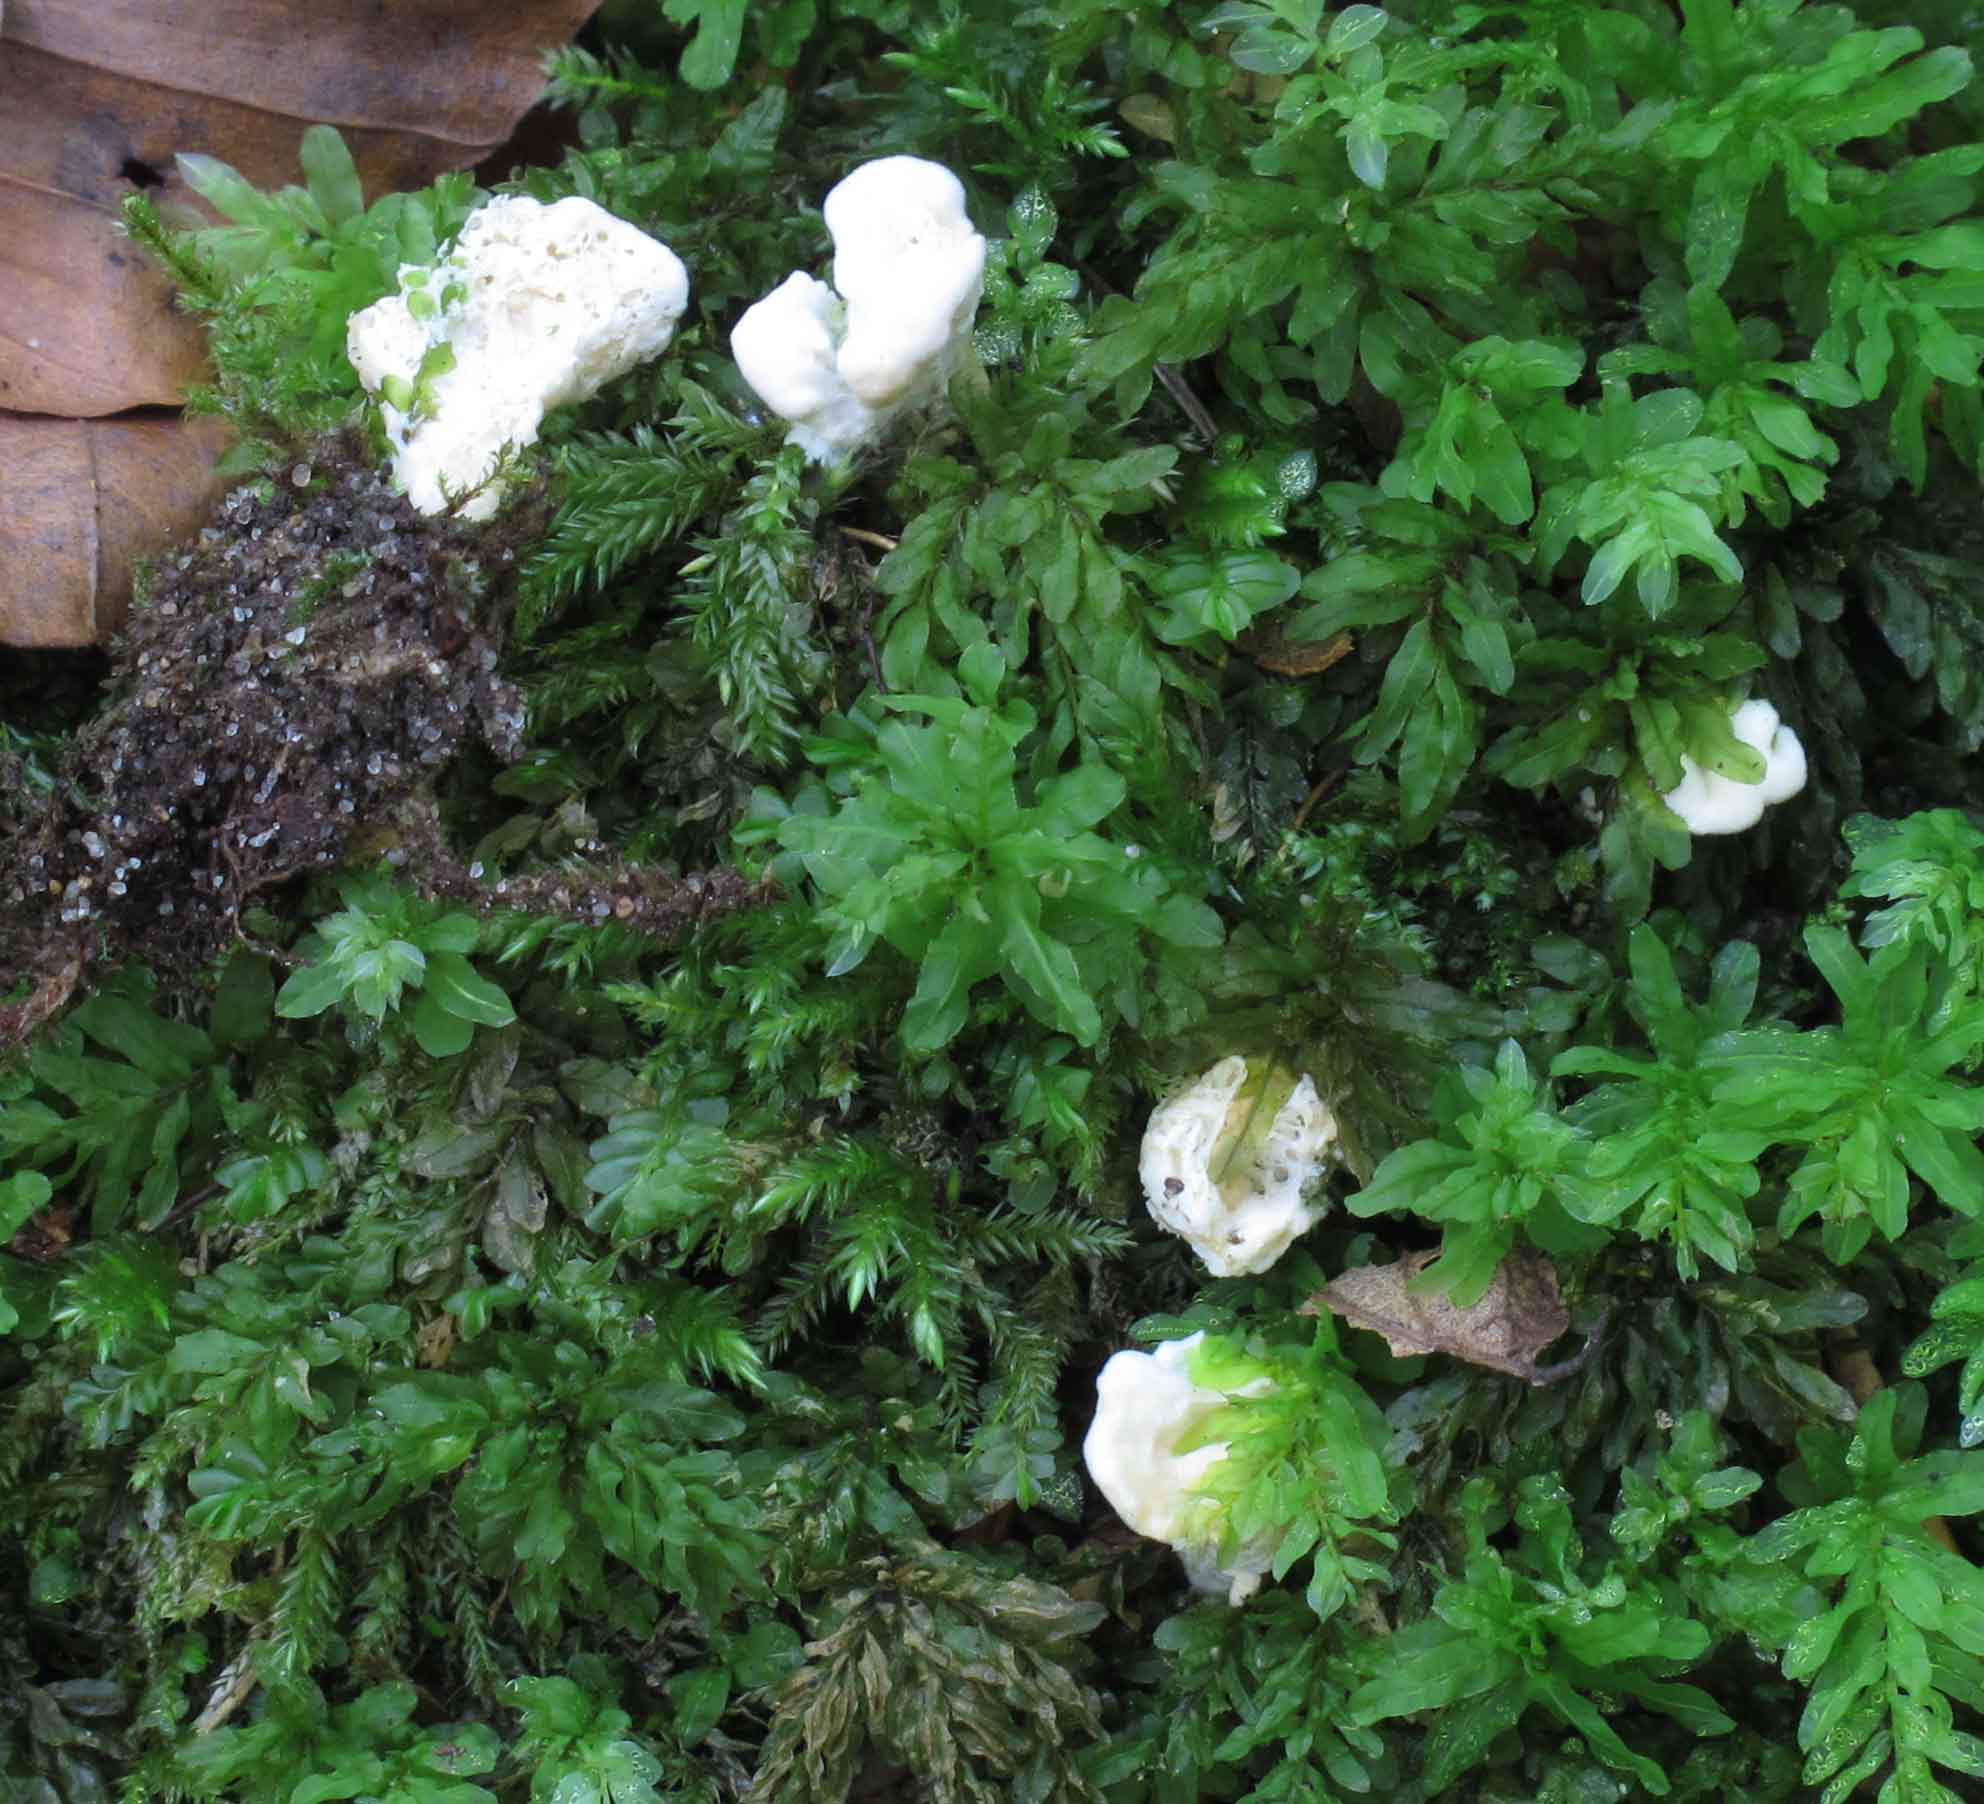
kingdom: Fungi
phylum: Basidiomycota
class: Agaricomycetes
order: Cantharellales
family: Hydnaceae
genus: Sistotrema
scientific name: Sistotrema confluens
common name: stilket kroneskorpe
